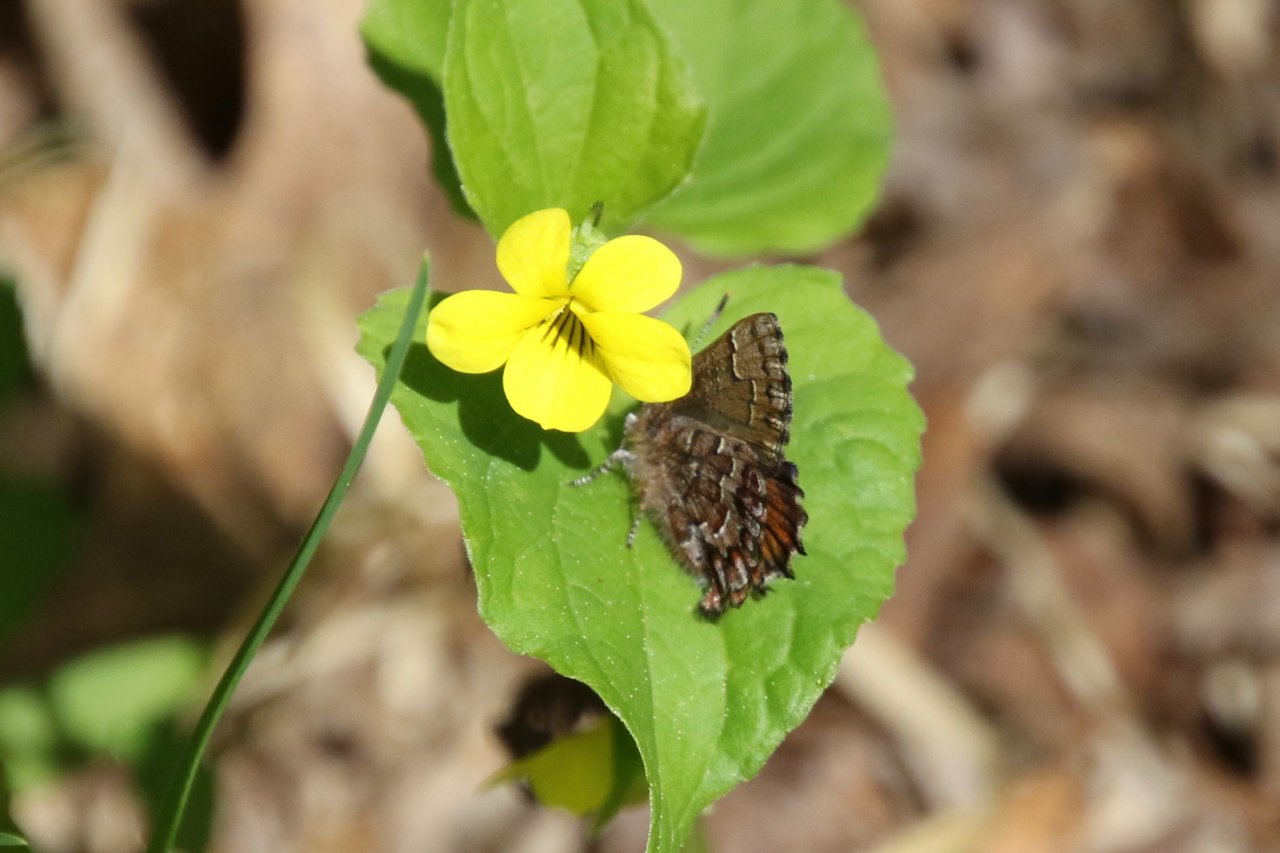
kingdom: Animalia
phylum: Arthropoda
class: Insecta
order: Lepidoptera
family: Lycaenidae
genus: Incisalia
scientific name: Incisalia niphon
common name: Eastern Pine Elfin
